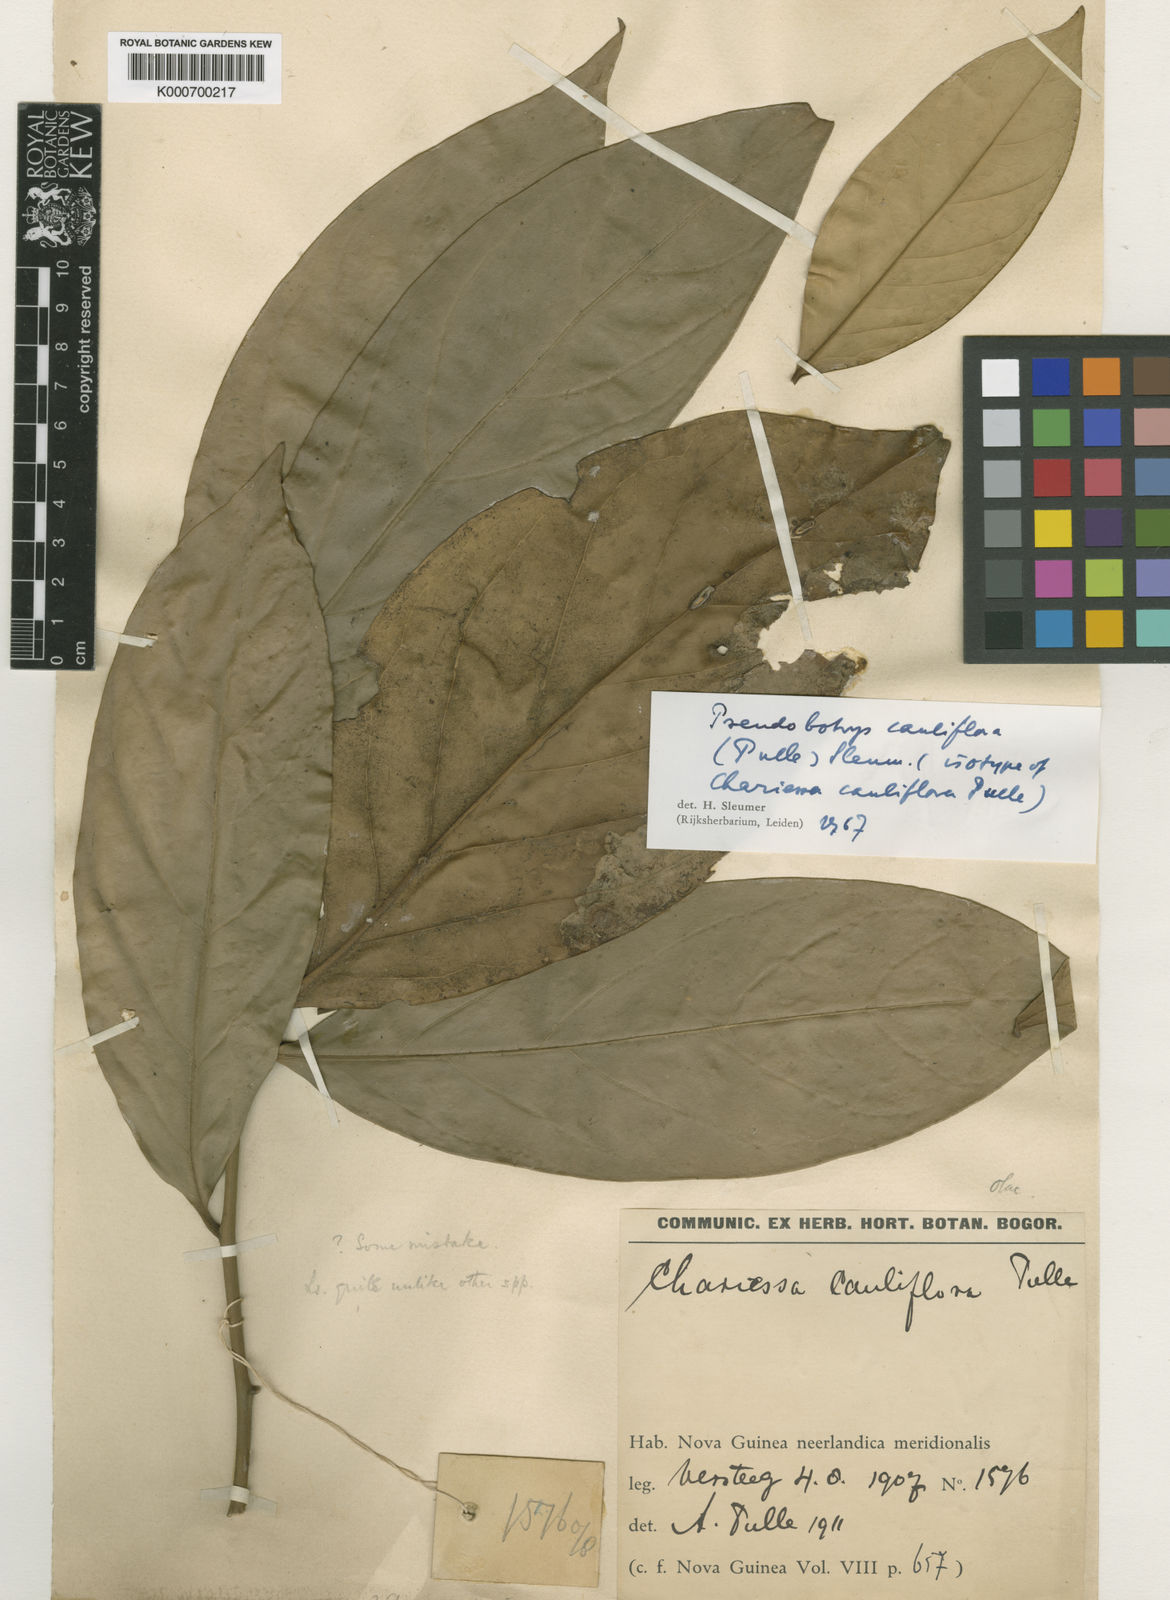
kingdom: Plantae
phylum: Tracheophyta
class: Magnoliopsida
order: Cardiopteridales
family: Cardiopteridaceae
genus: Pseudobotrys
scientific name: Pseudobotrys cauliflora
